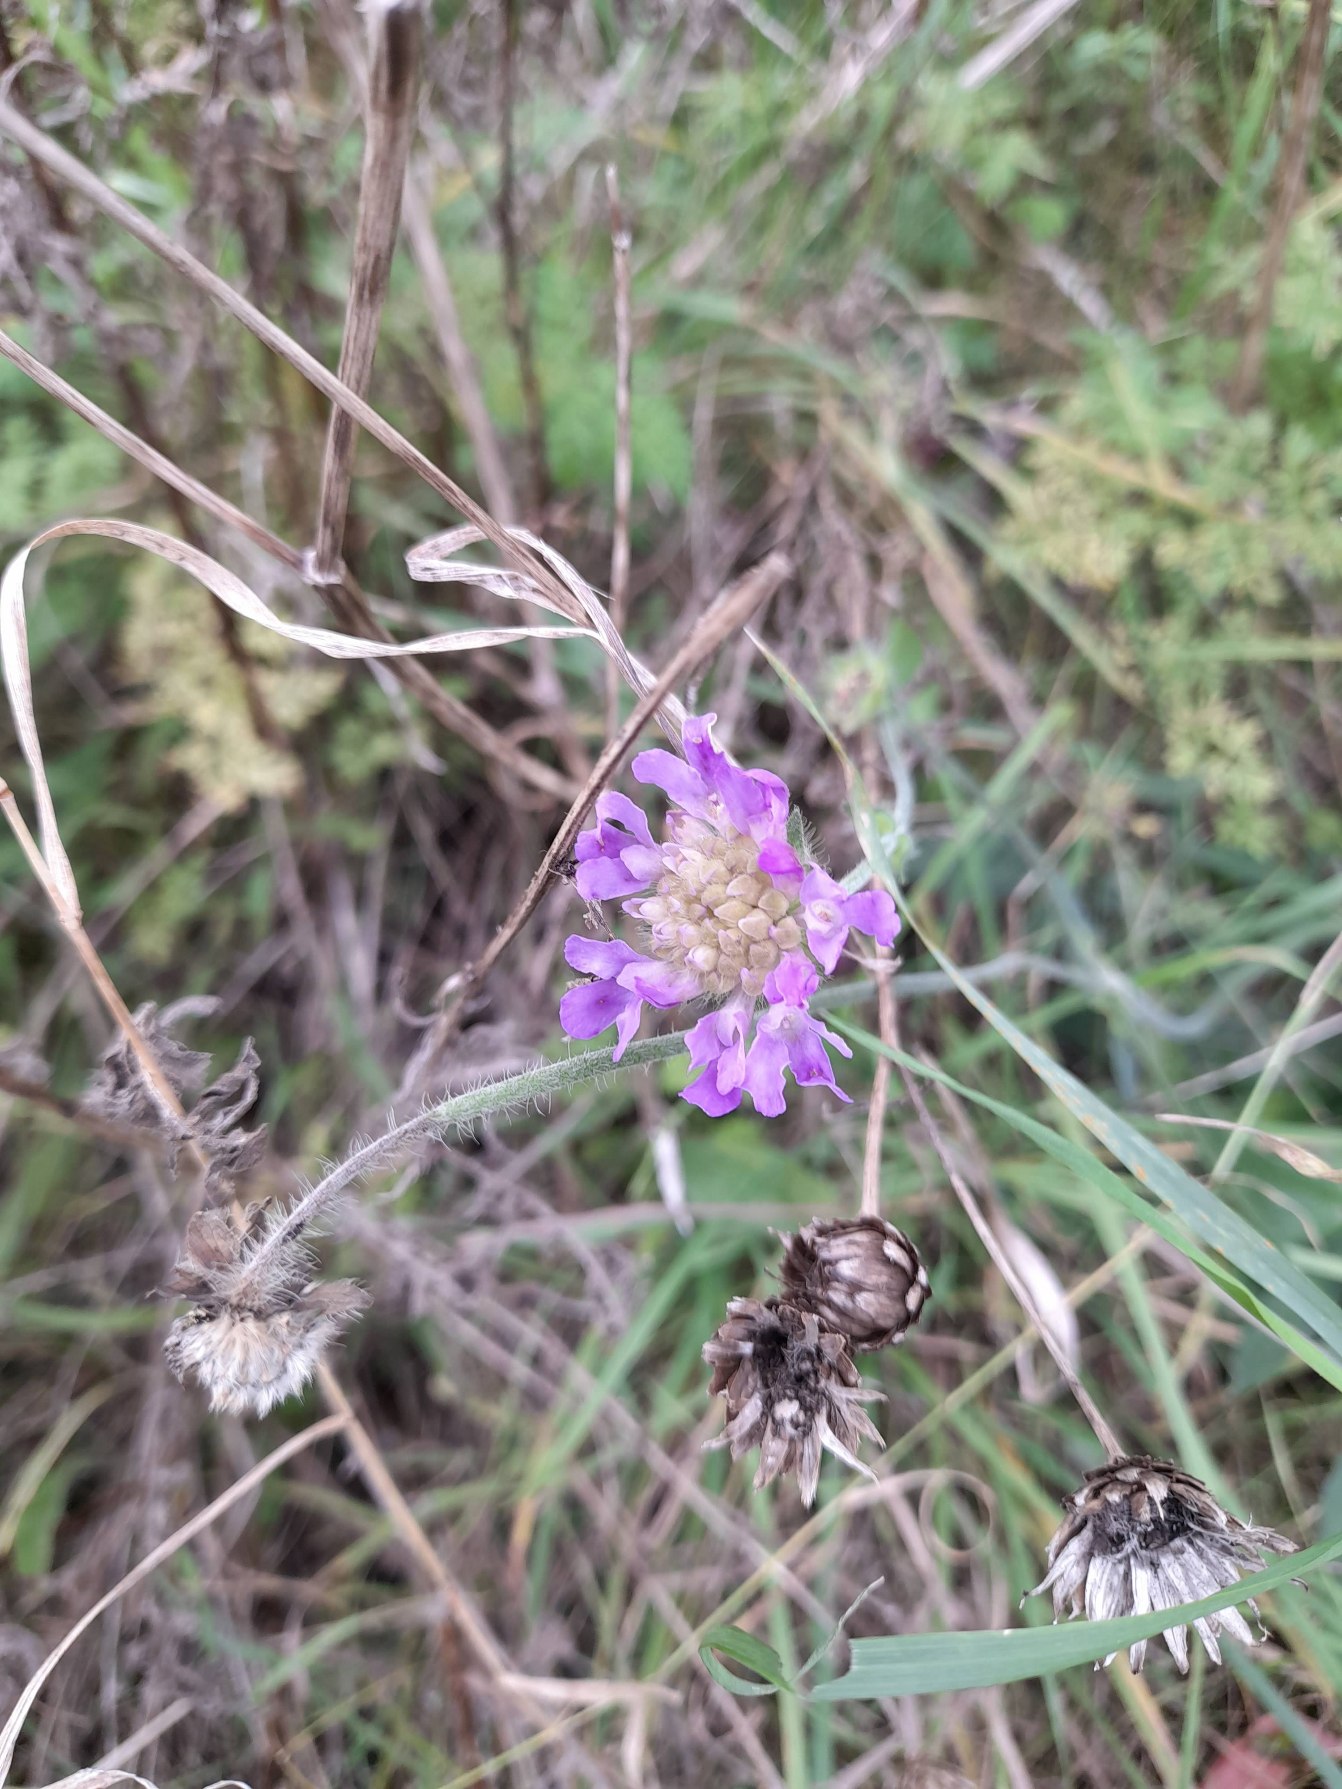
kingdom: Plantae
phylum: Tracheophyta
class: Magnoliopsida
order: Dipsacales
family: Caprifoliaceae
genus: Knautia
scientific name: Knautia arvensis
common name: Blåhat
